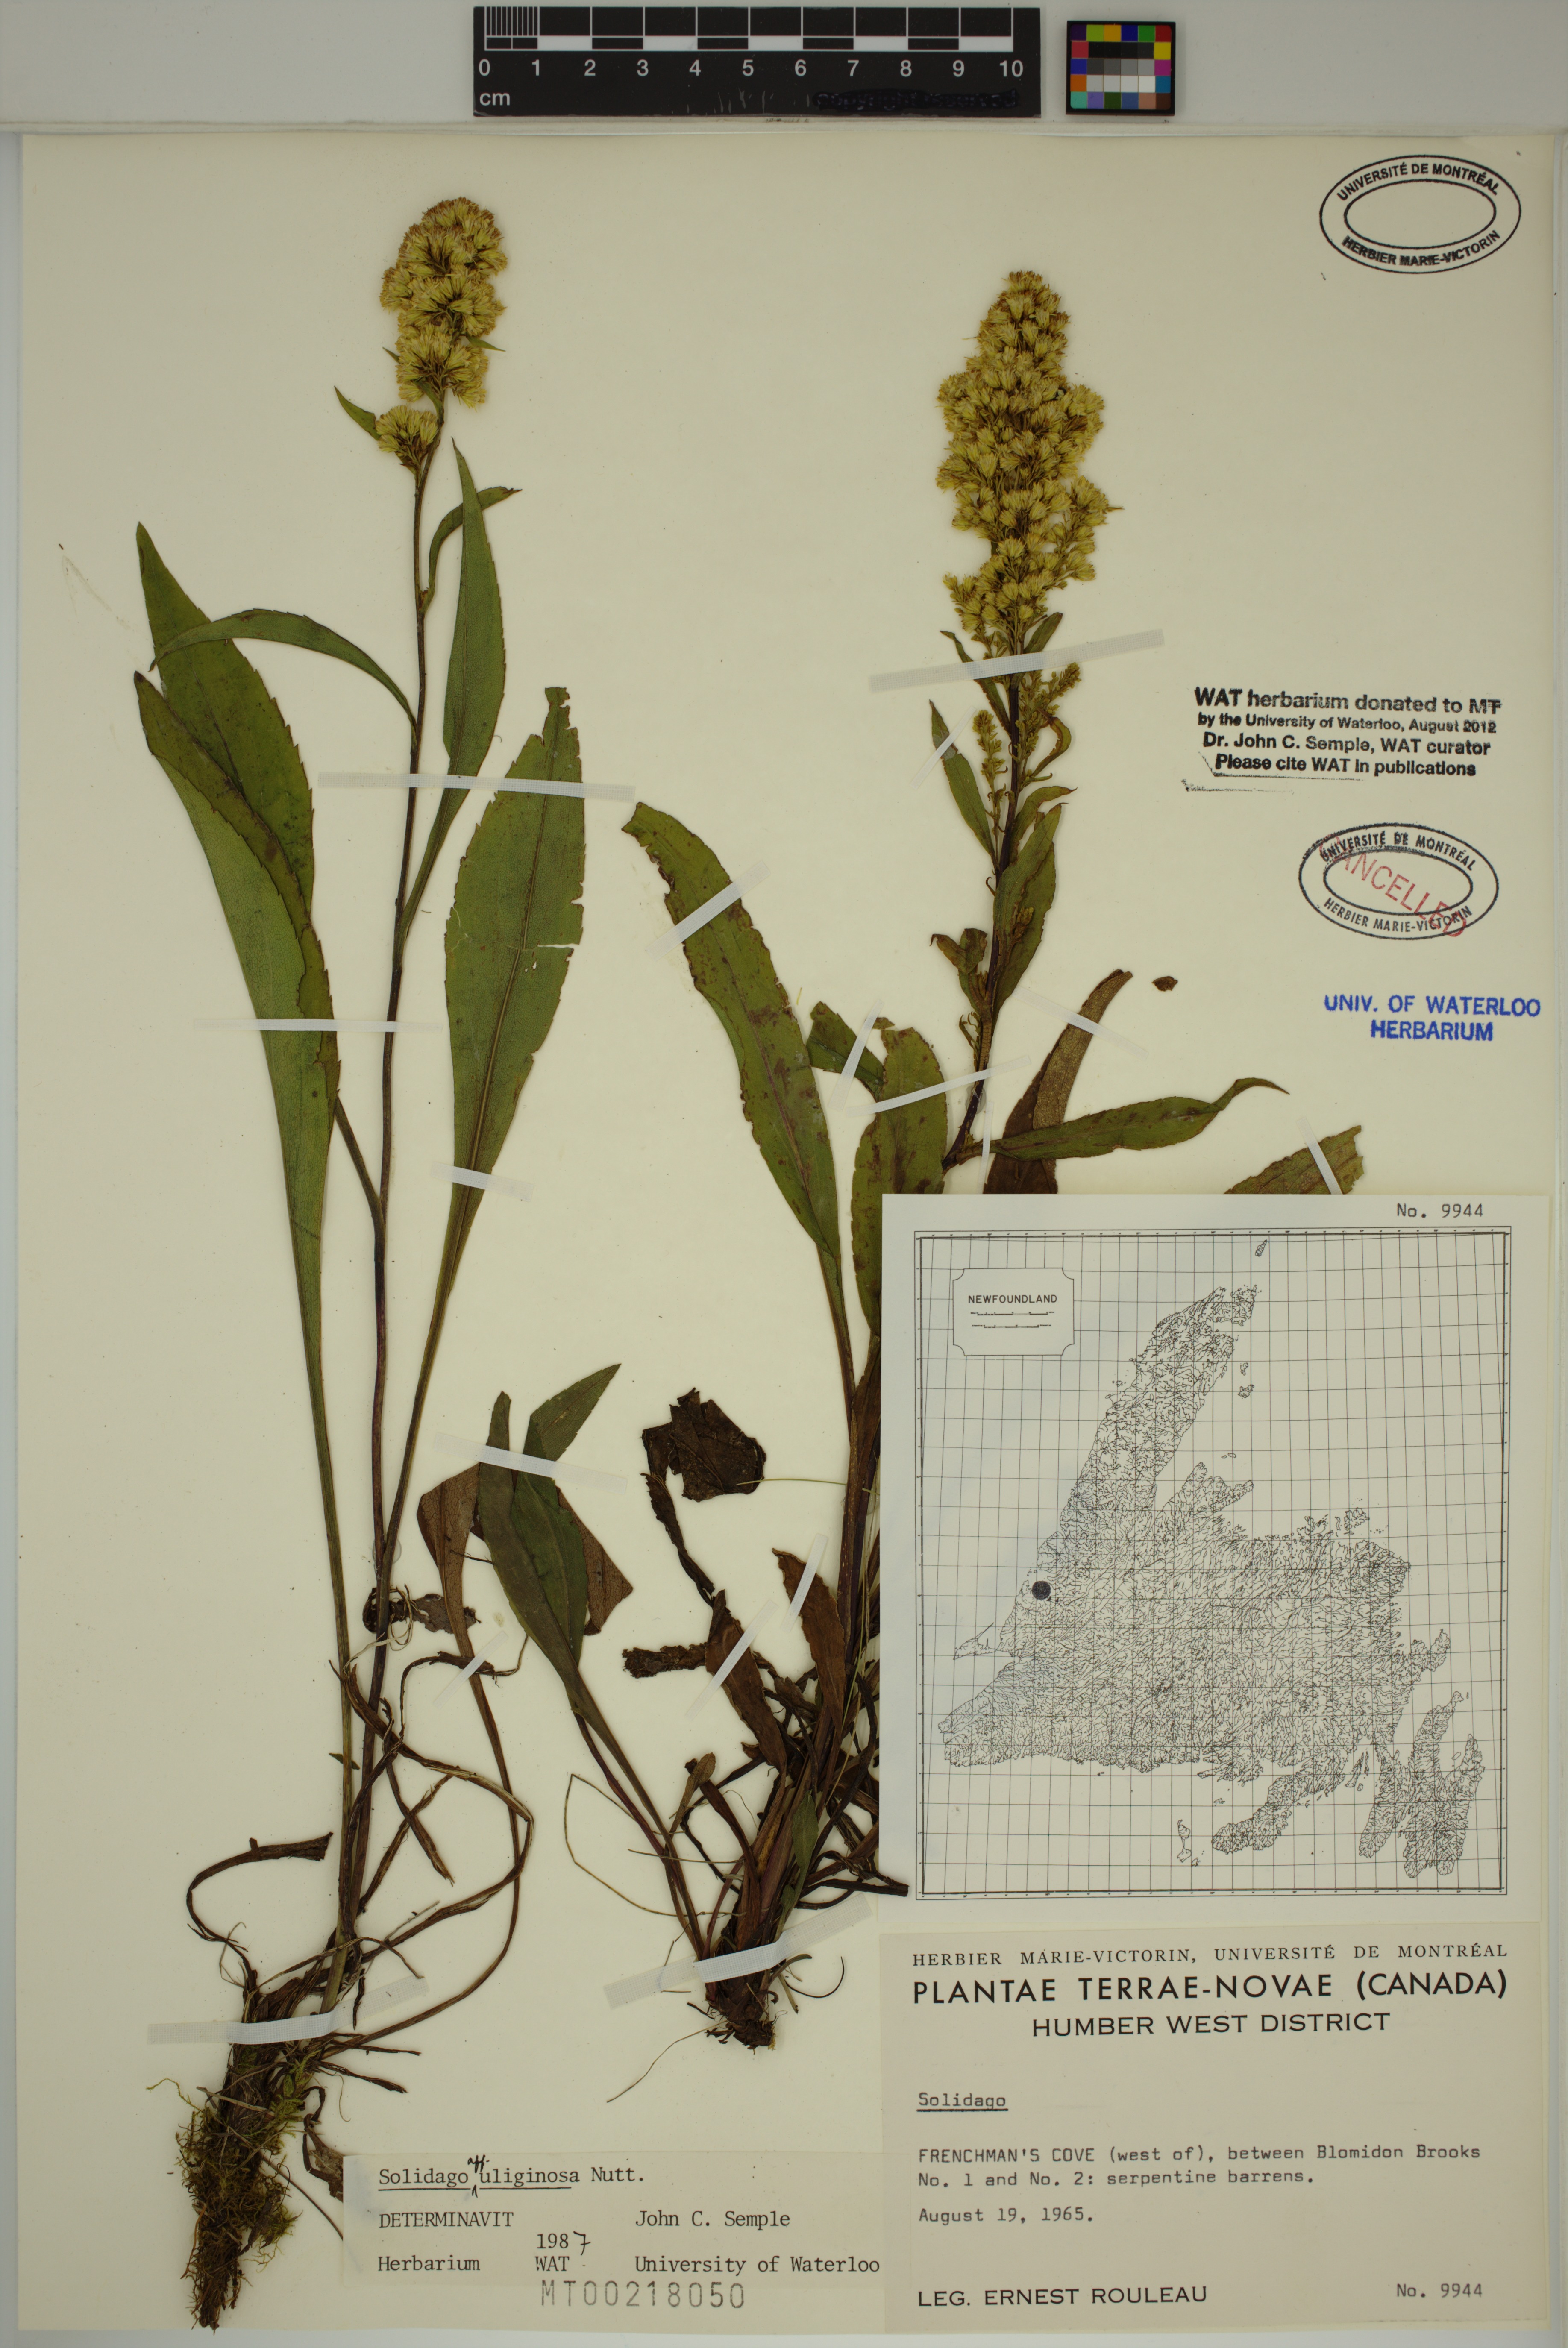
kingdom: Plantae
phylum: Tracheophyta
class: Magnoliopsida
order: Asterales
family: Asteraceae
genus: Solidago
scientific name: Solidago uliginosa
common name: Bog goldenrod
